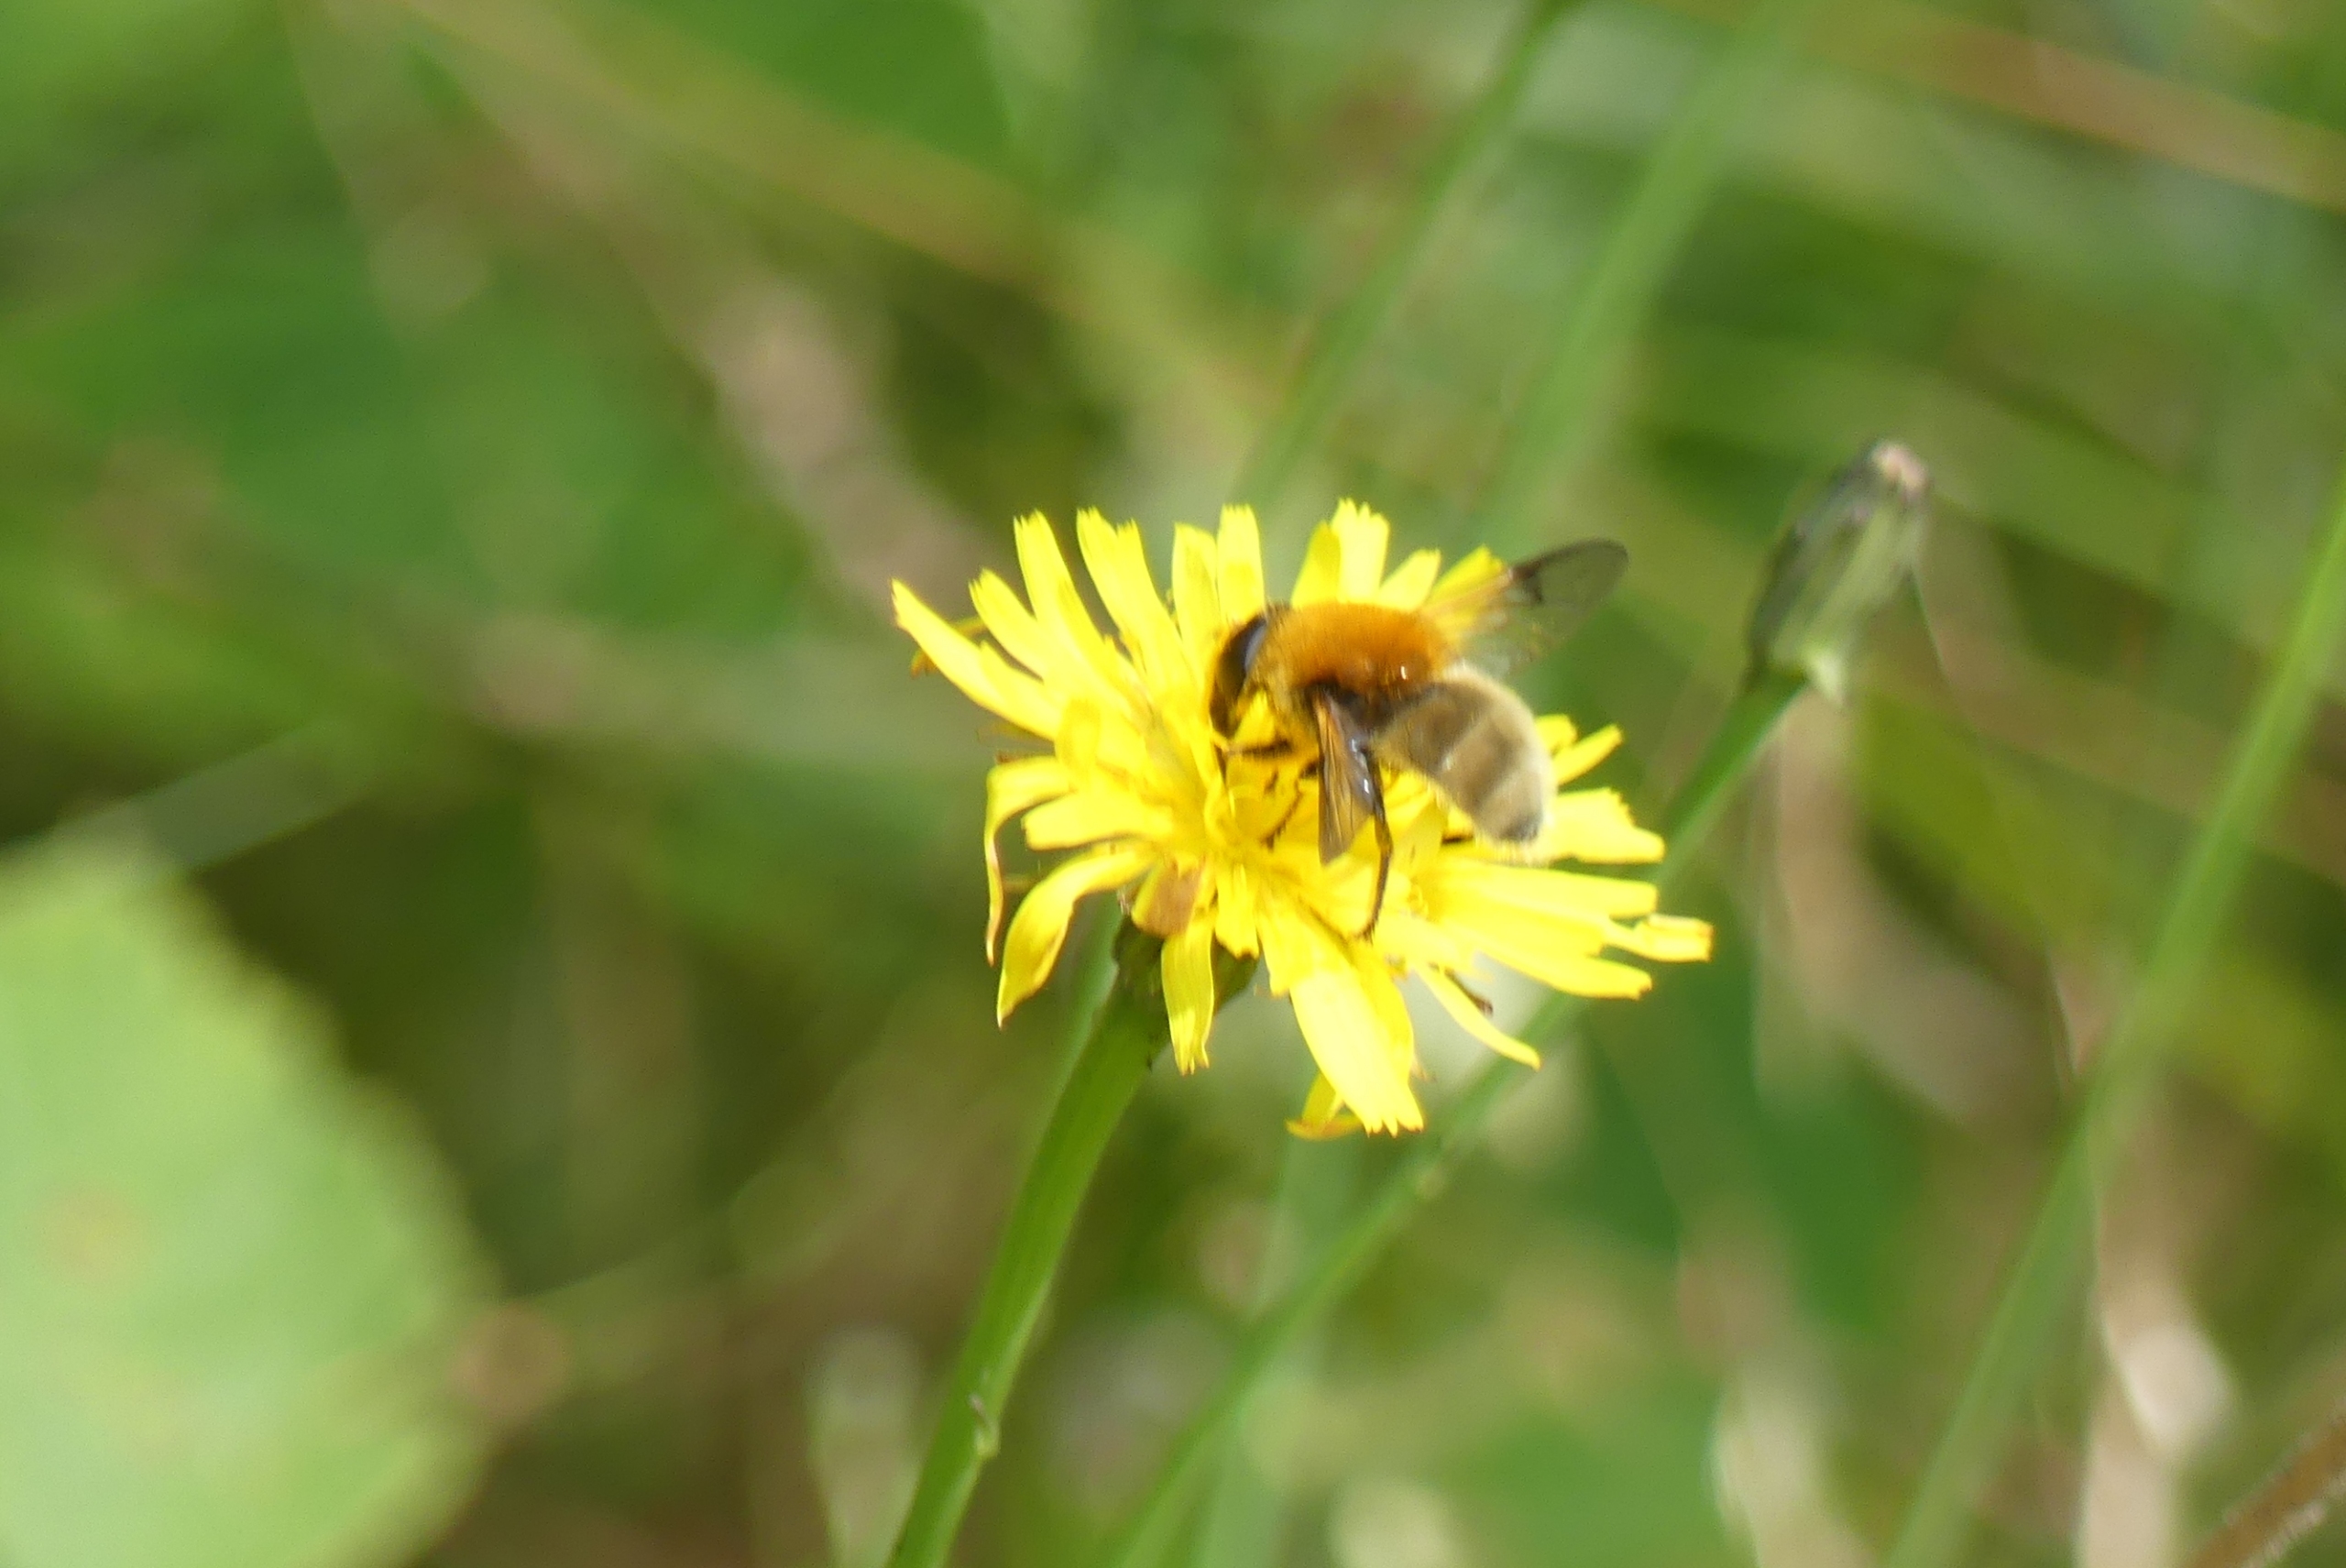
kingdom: Animalia
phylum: Arthropoda
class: Insecta
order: Diptera
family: Syrphidae
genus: Sericomyia
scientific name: Sericomyia superbiens
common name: Brun bjørnesvirreflue
